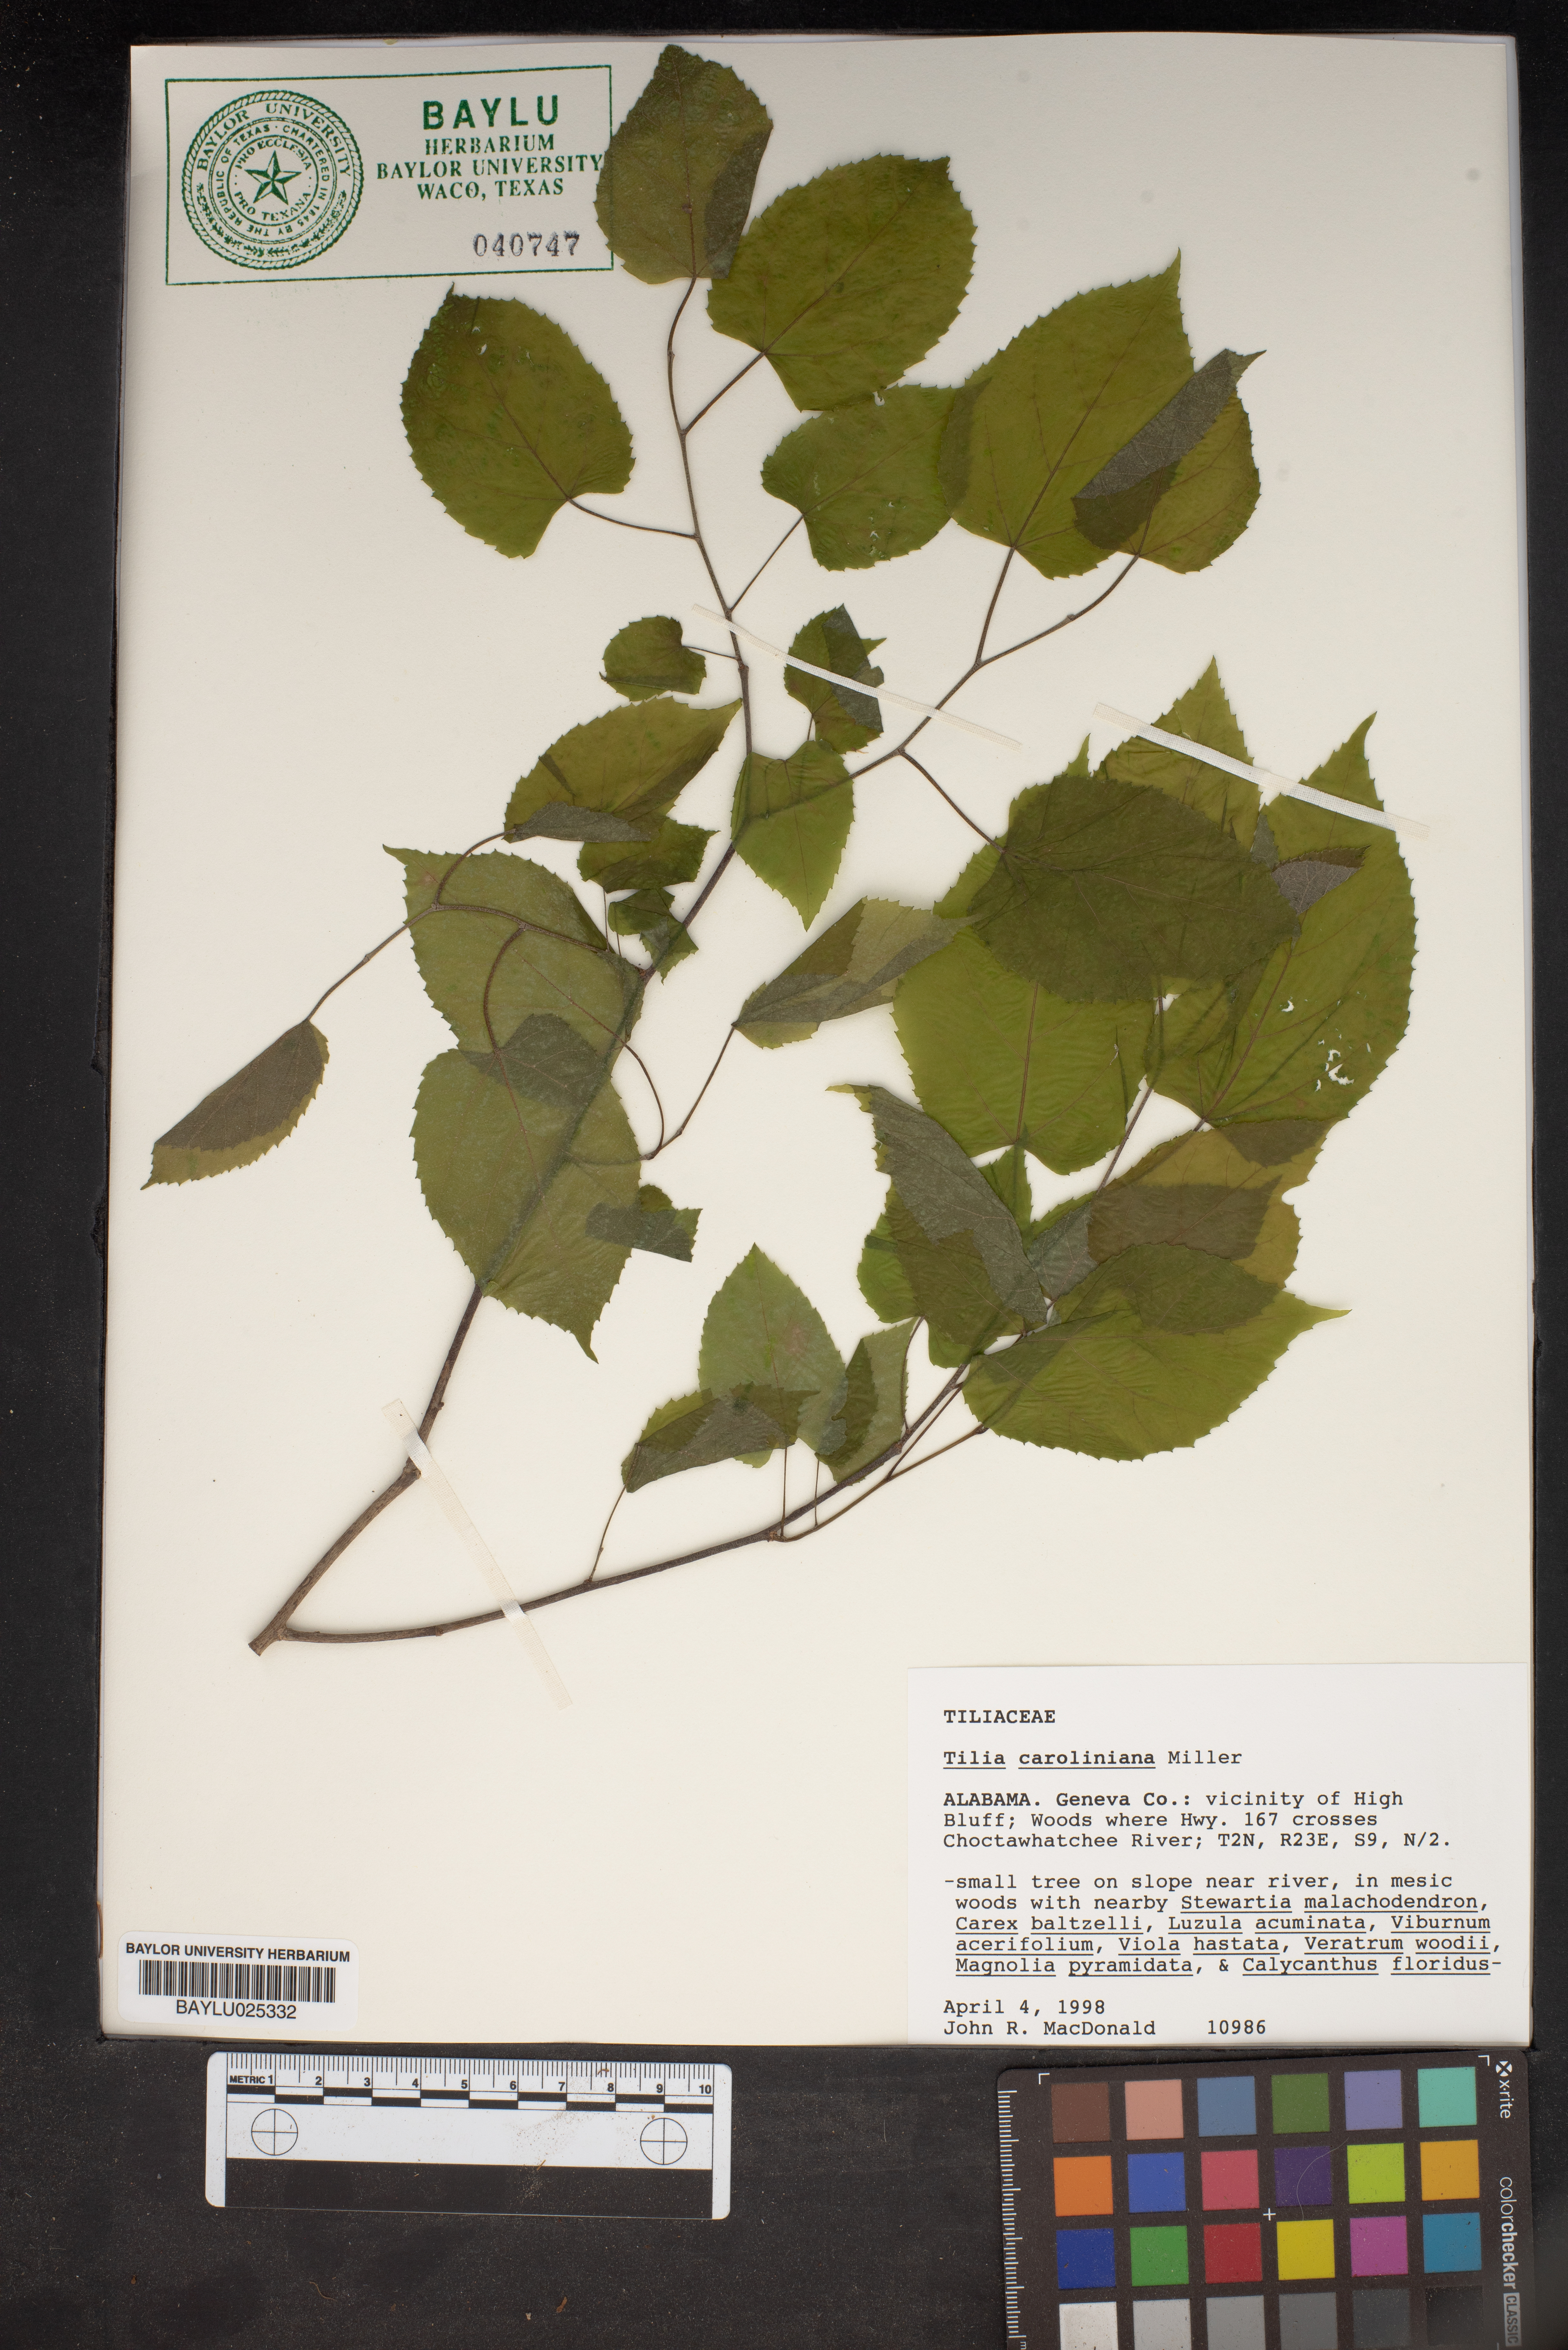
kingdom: Plantae
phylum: Tracheophyta
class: Magnoliopsida
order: Malvales
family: Malvaceae
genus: Tilia
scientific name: Tilia americana
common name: Basswood
